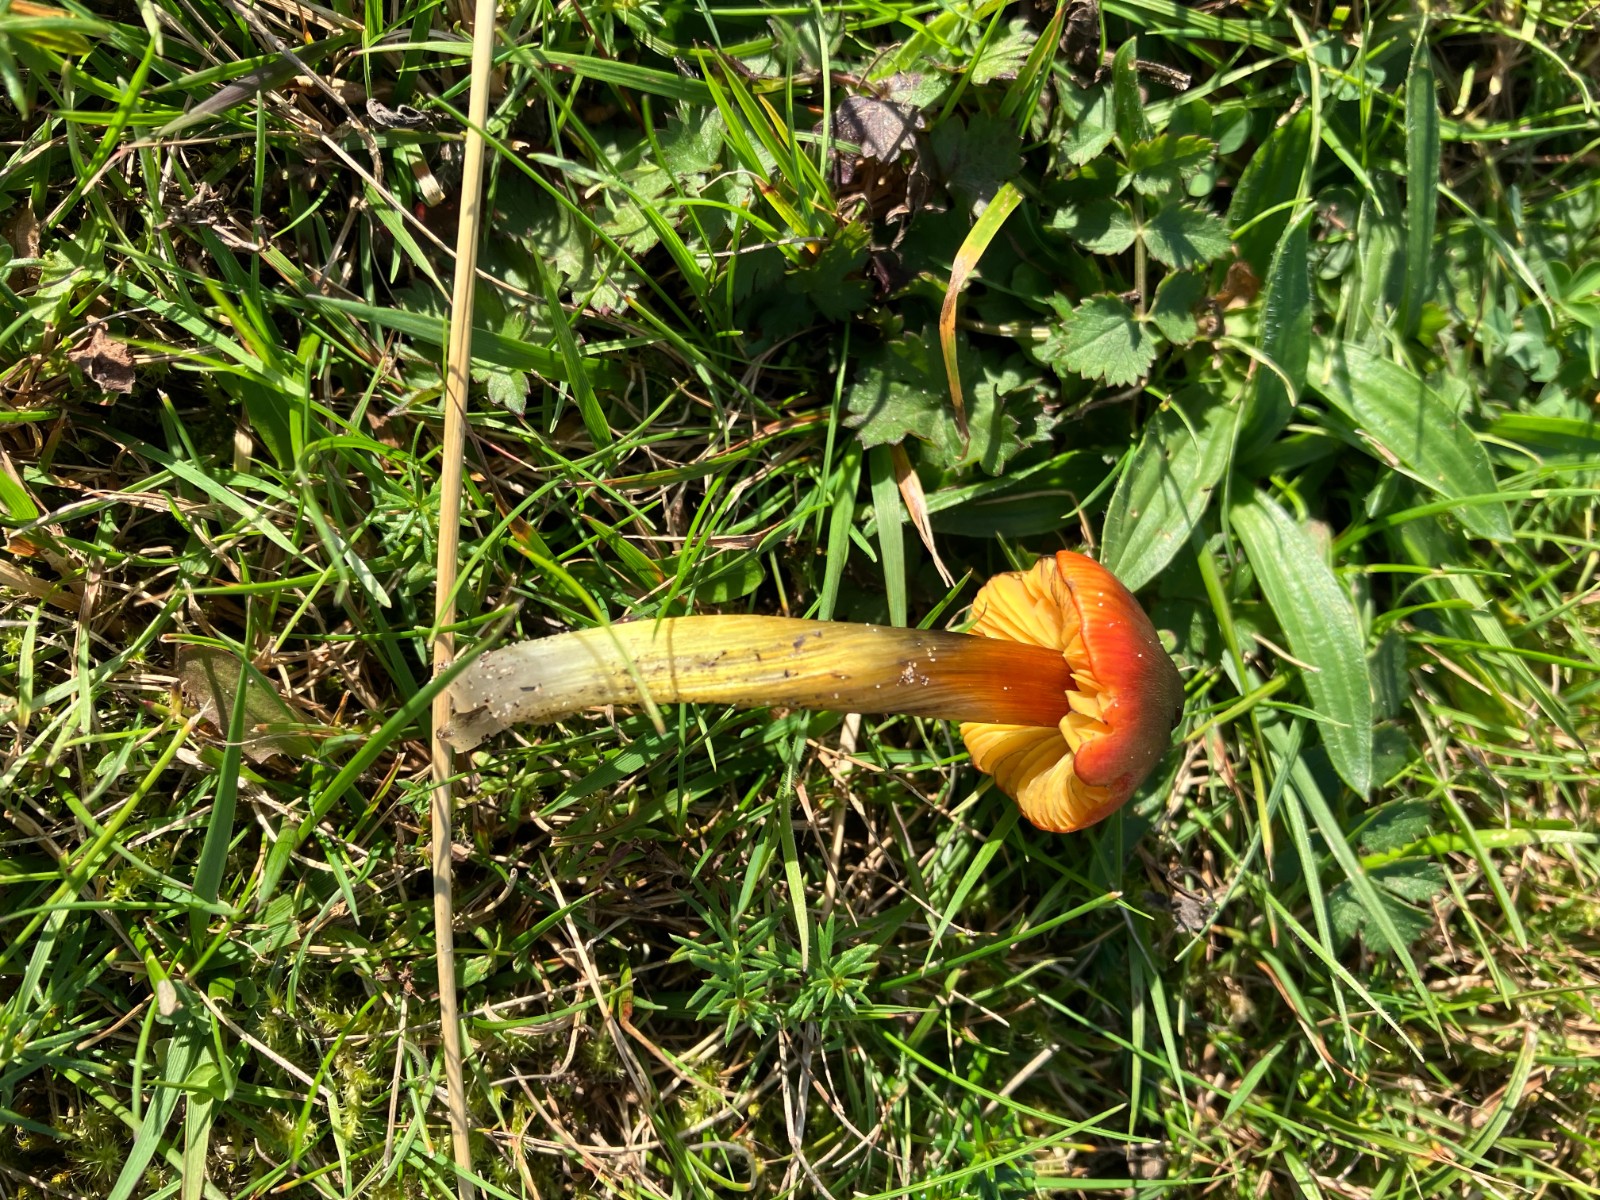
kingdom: Fungi
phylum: Basidiomycota
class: Agaricomycetes
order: Agaricales
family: Hygrophoraceae
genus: Hygrocybe
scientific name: Hygrocybe conica
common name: kegle-vokshat
